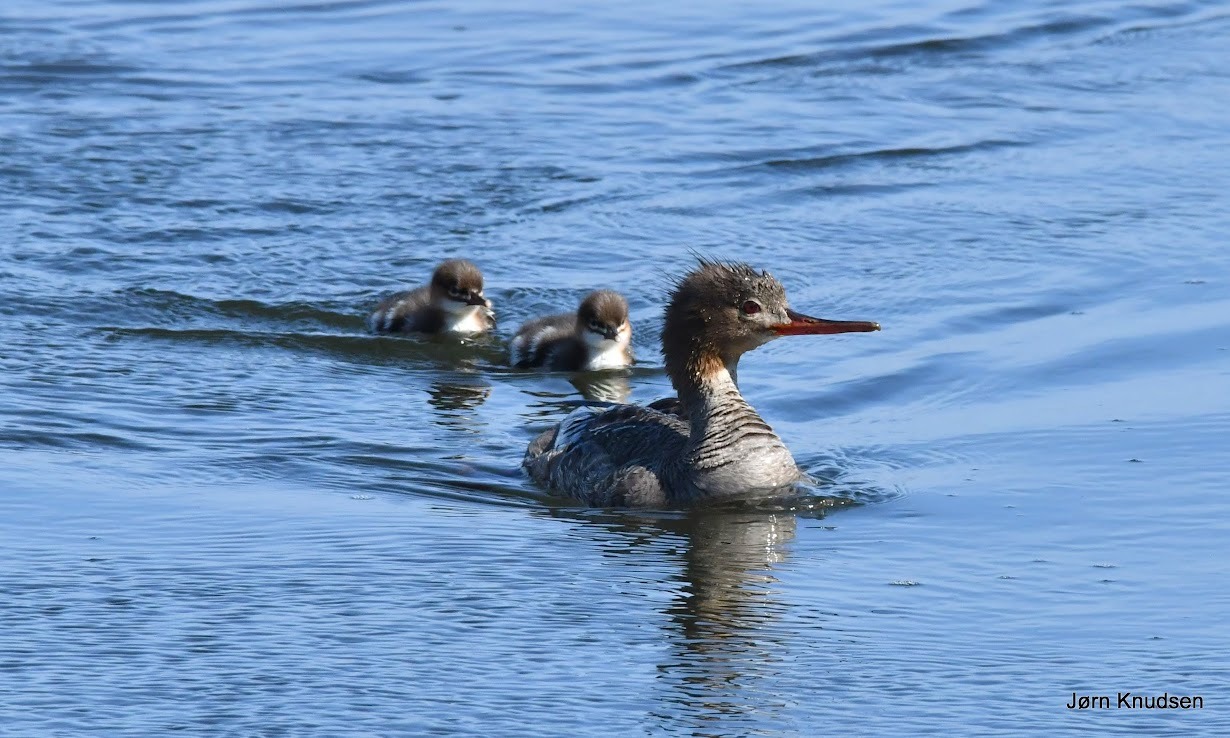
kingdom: Animalia
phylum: Chordata
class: Aves
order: Anseriformes
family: Anatidae
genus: Mergus
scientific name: Mergus serrator
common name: Toppet skallesluger
